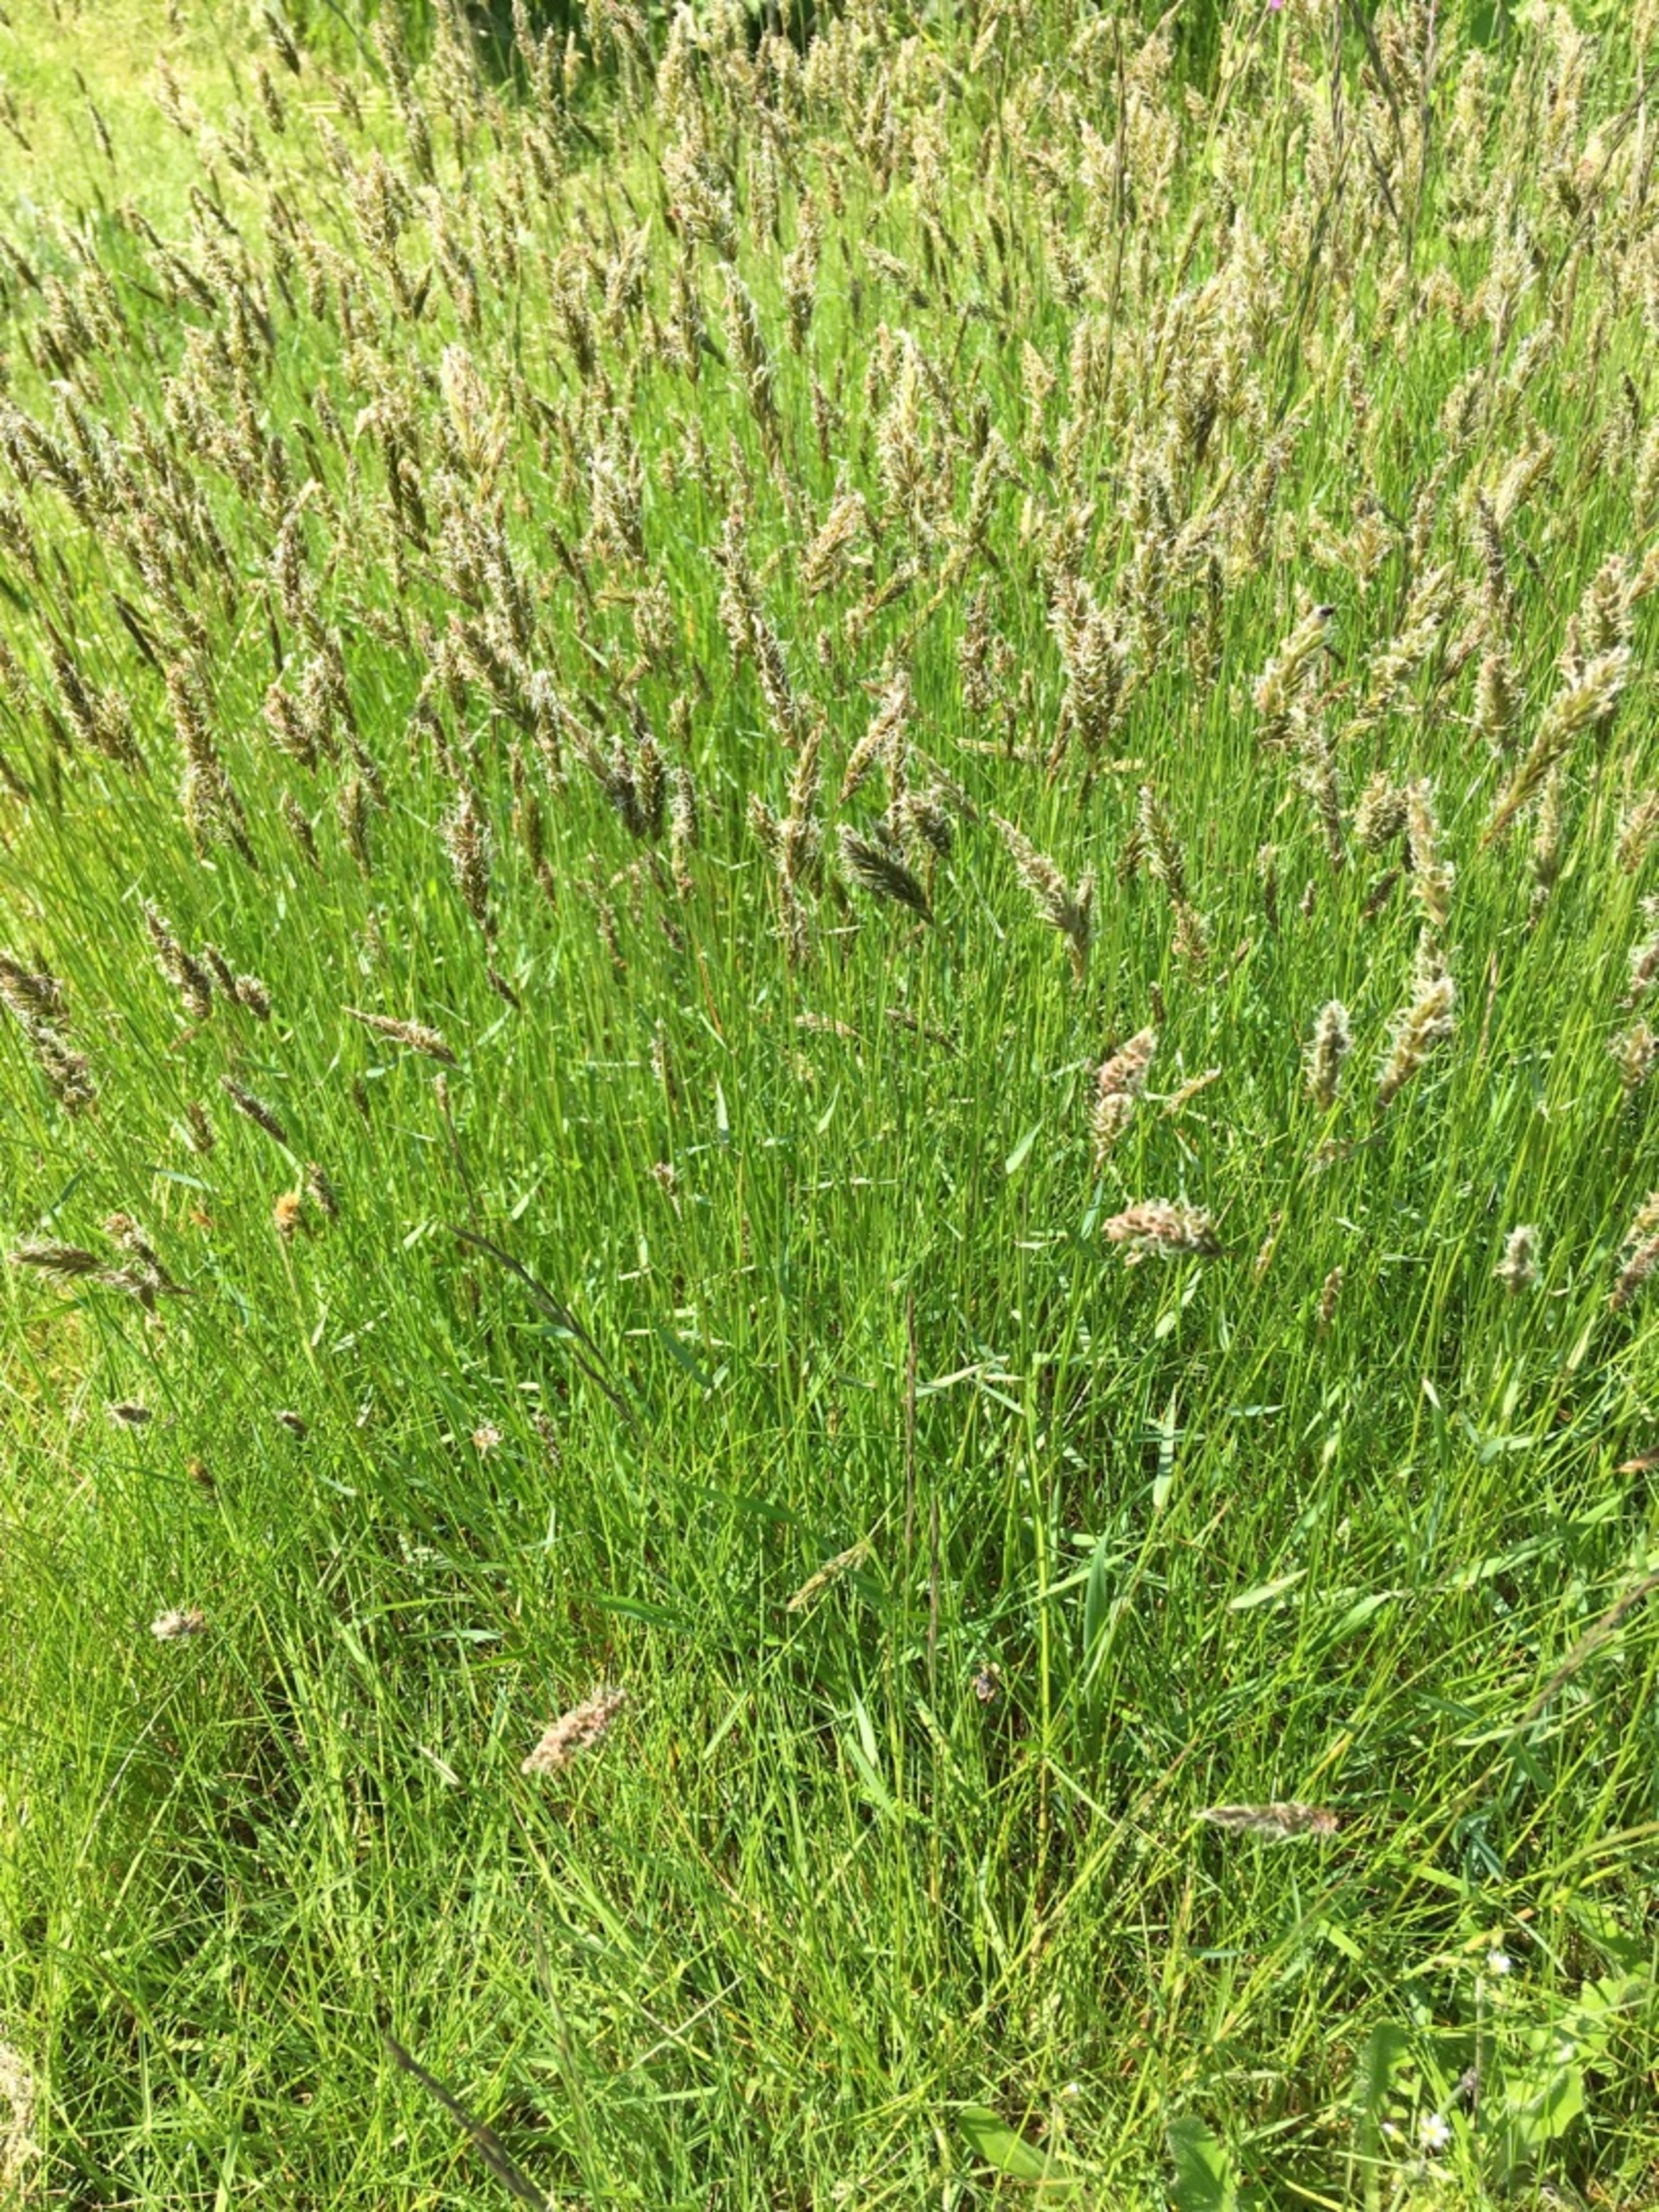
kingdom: Plantae
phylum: Tracheophyta
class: Liliopsida
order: Poales
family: Poaceae
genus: Anthoxanthum
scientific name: Anthoxanthum odoratum
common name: Vellugtende gulaks
